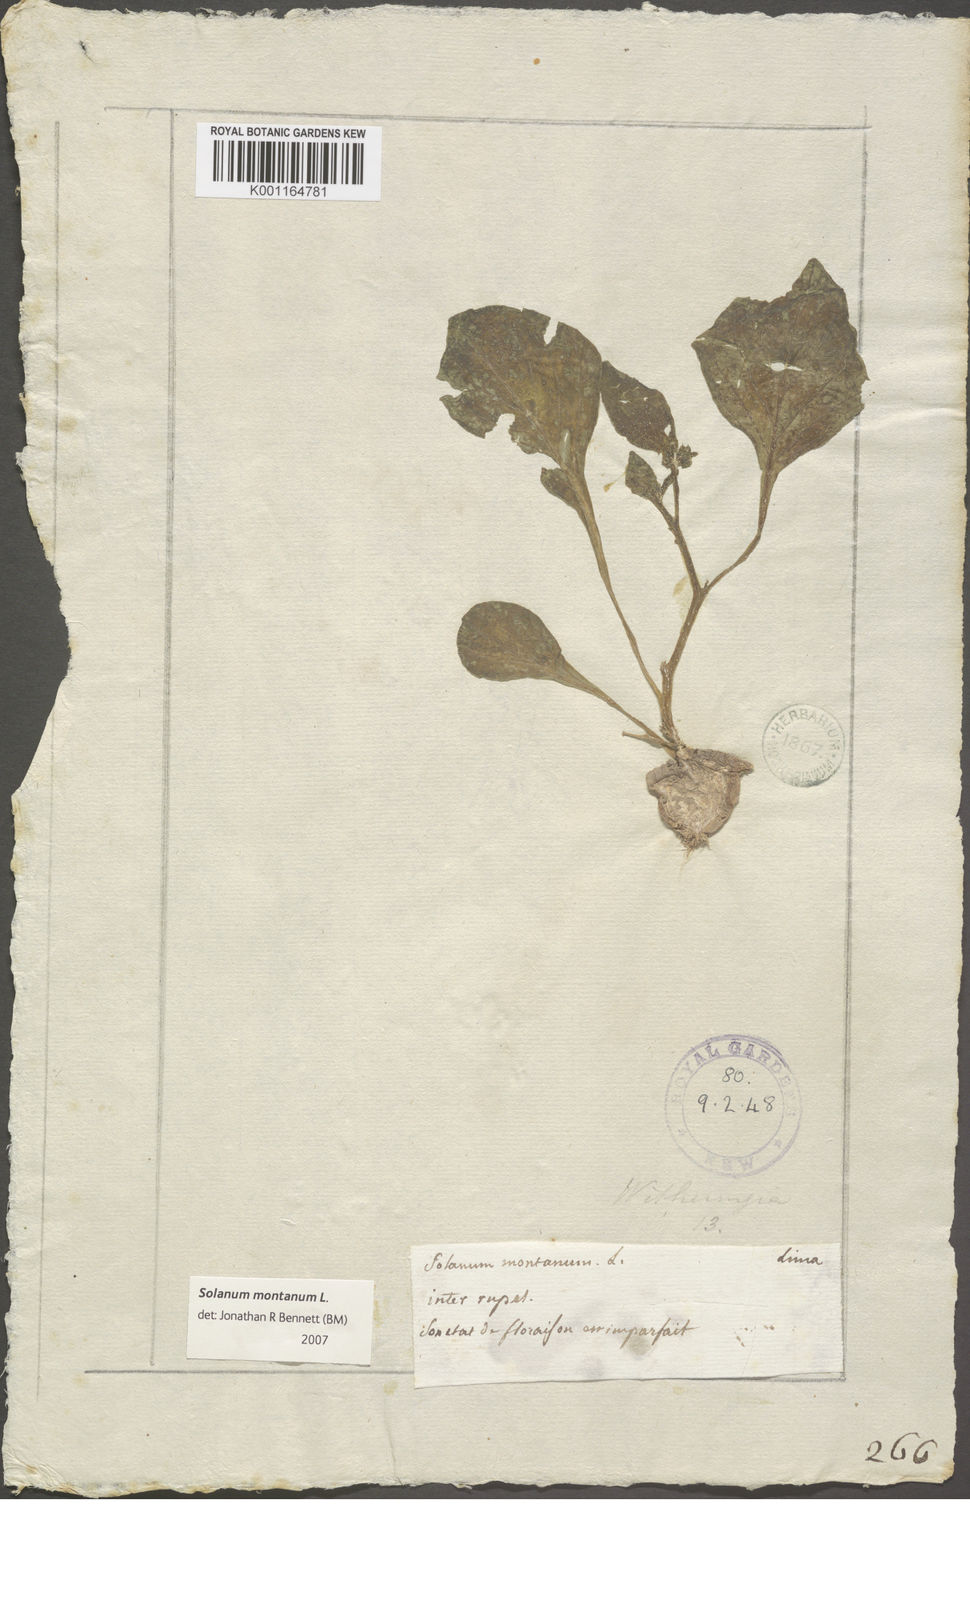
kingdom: Plantae
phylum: Tracheophyta
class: Magnoliopsida
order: Solanales
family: Solanaceae
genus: Solanum
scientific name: Solanum montanum
